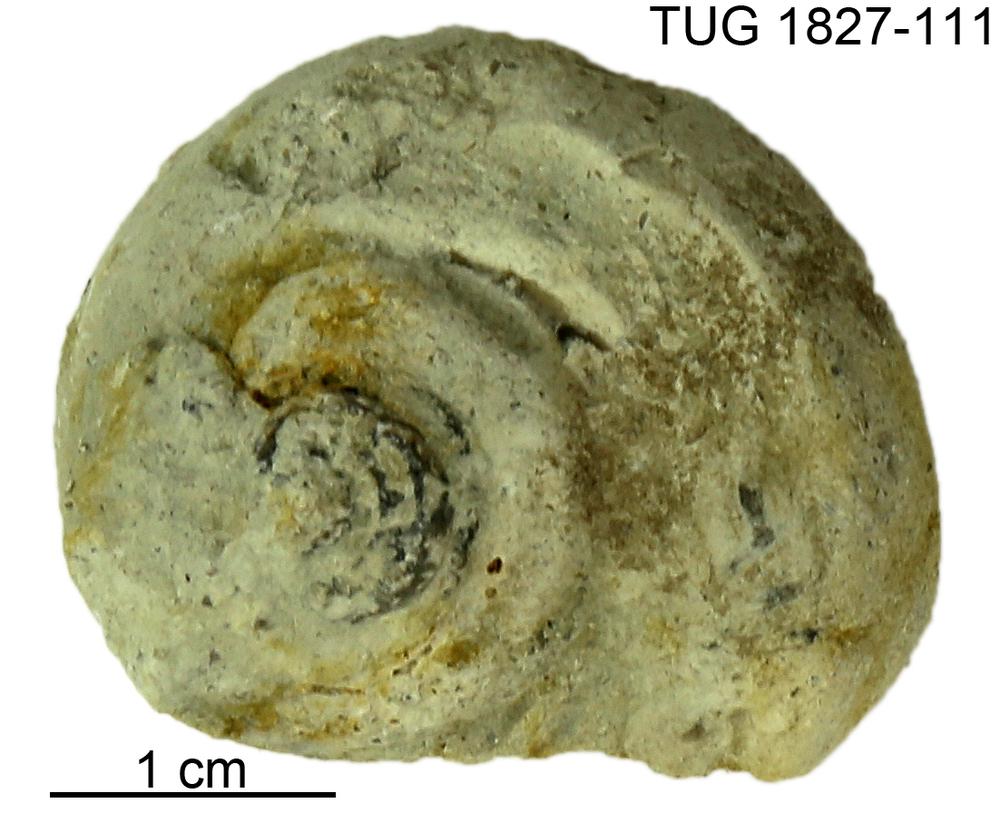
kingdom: Animalia
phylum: Mollusca
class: Gastropoda
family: Helicotomidae
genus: Boucotspira
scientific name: Boucotspira Euomphalus carinifer
